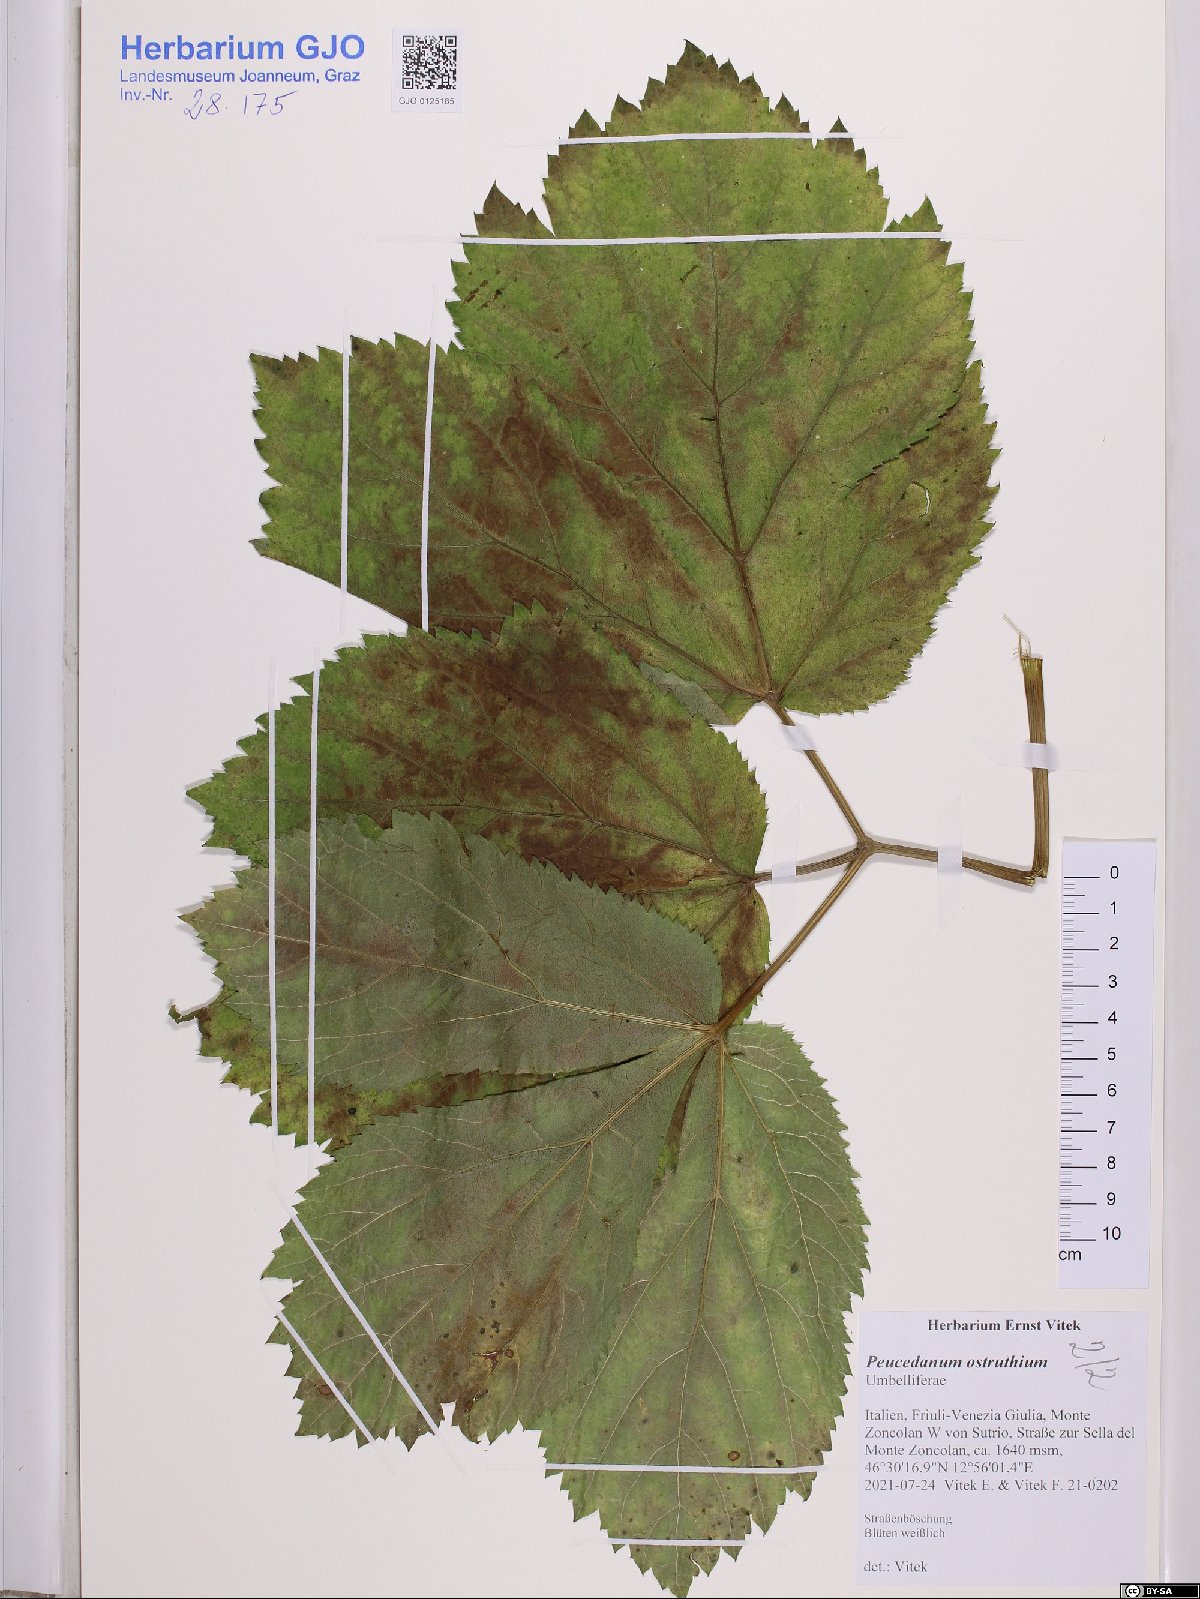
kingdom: Plantae
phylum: Tracheophyta
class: Magnoliopsida
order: Apiales
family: Apiaceae
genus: Imperatoria
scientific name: Imperatoria ostruthium
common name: Masterwort
